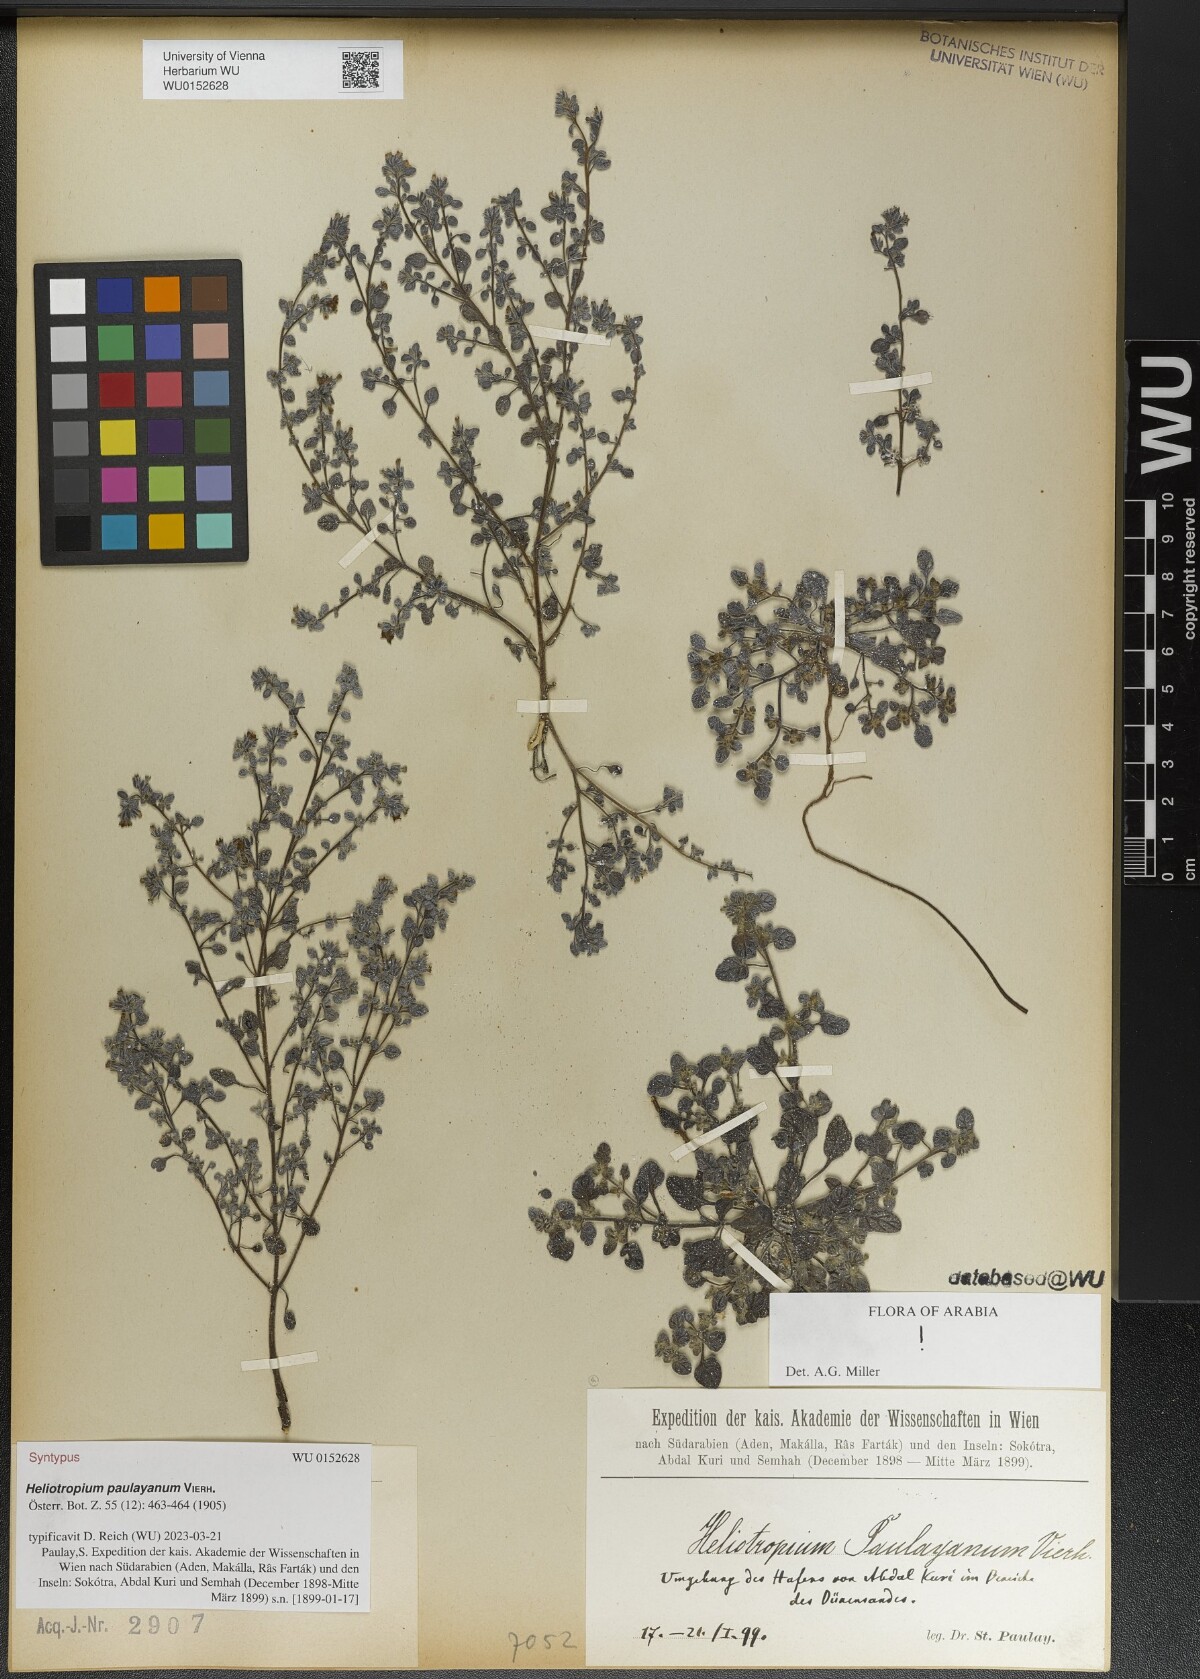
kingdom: Plantae
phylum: Tracheophyta
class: Magnoliopsida
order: Boraginales
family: Heliotropiaceae
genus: Heliotropium
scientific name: Heliotropium paulayanum
